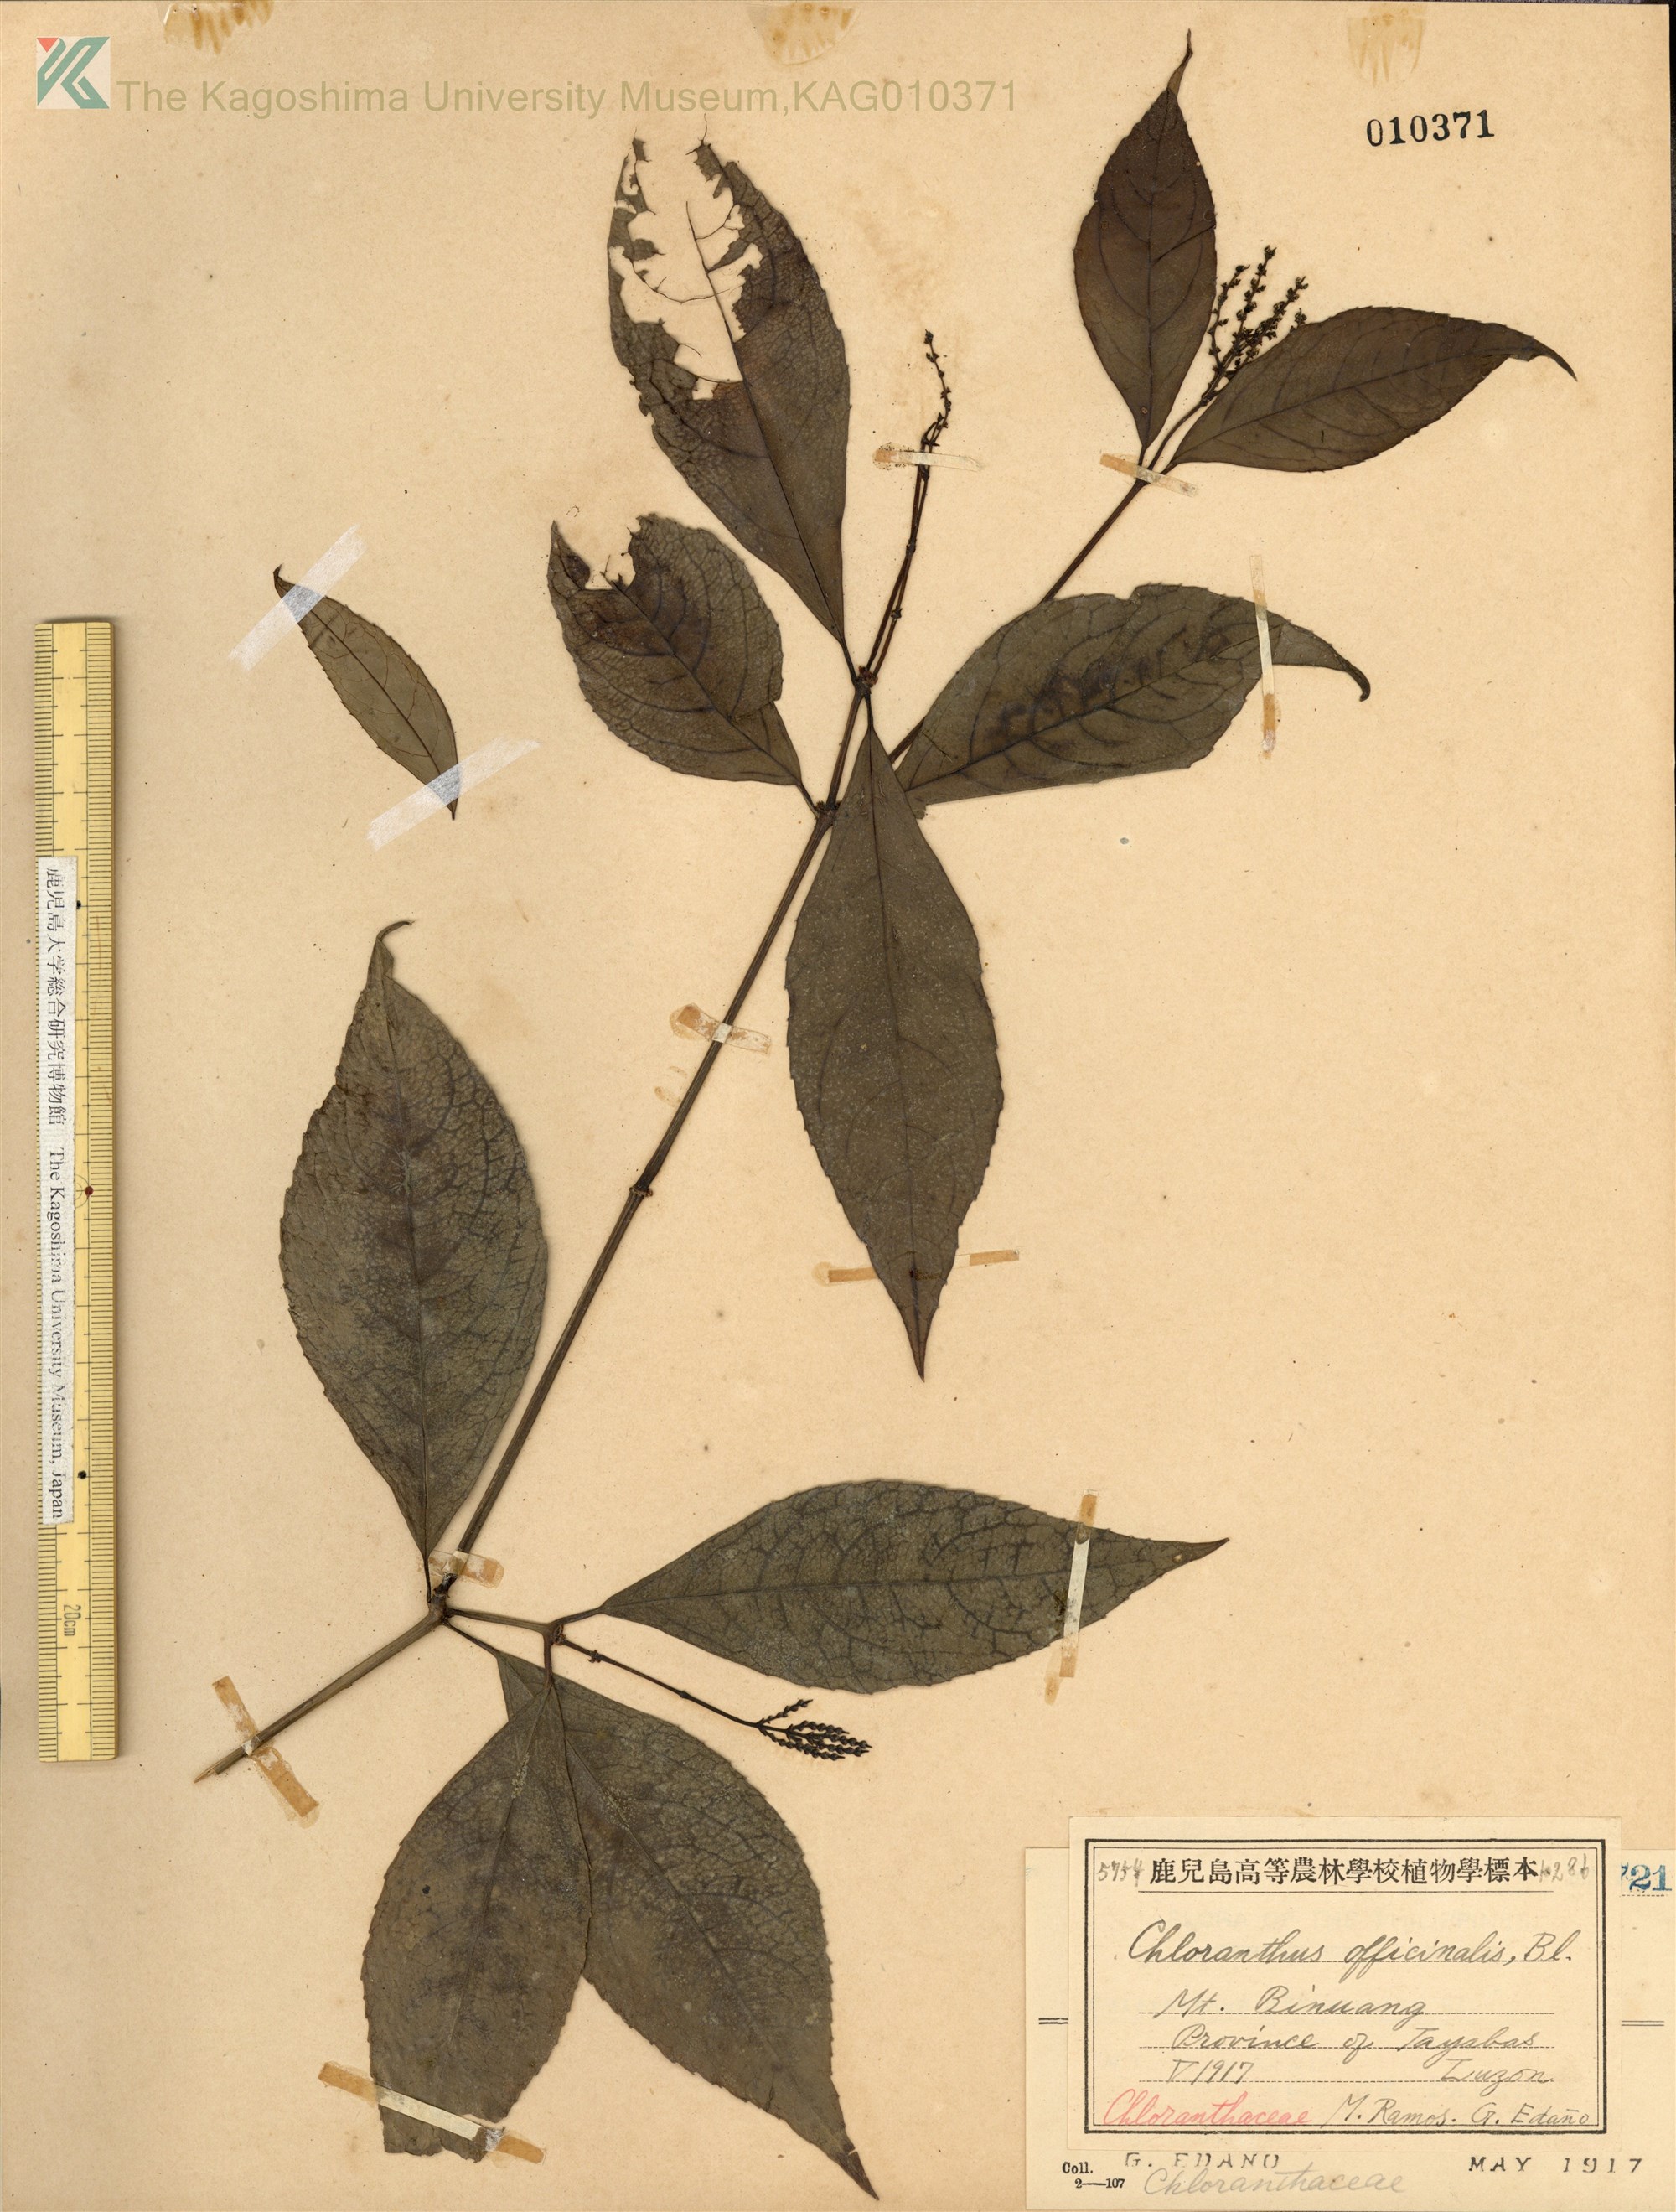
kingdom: Plantae
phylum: Tracheophyta
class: Magnoliopsida
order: Chloranthales
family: Chloranthaceae
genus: Chloranthus
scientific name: Chloranthus elatior
